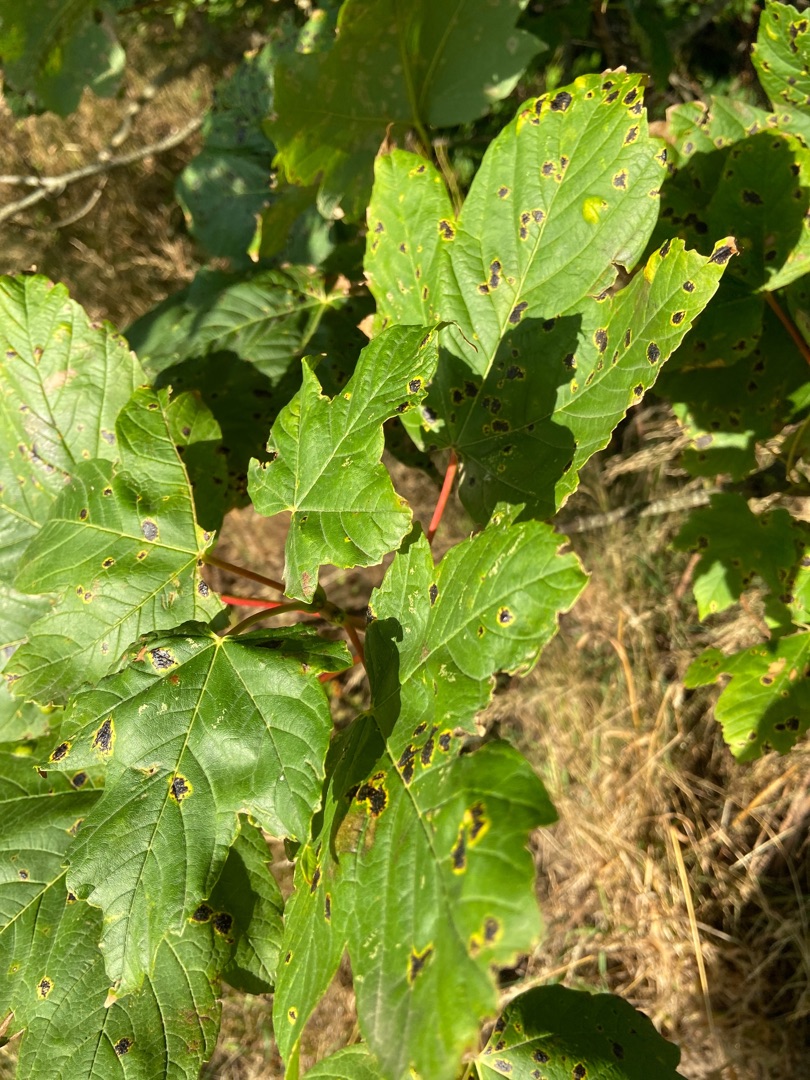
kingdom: Plantae
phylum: Tracheophyta
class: Magnoliopsida
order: Sapindales
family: Sapindaceae
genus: Acer
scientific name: Acer pseudoplatanus
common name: Ahorn
